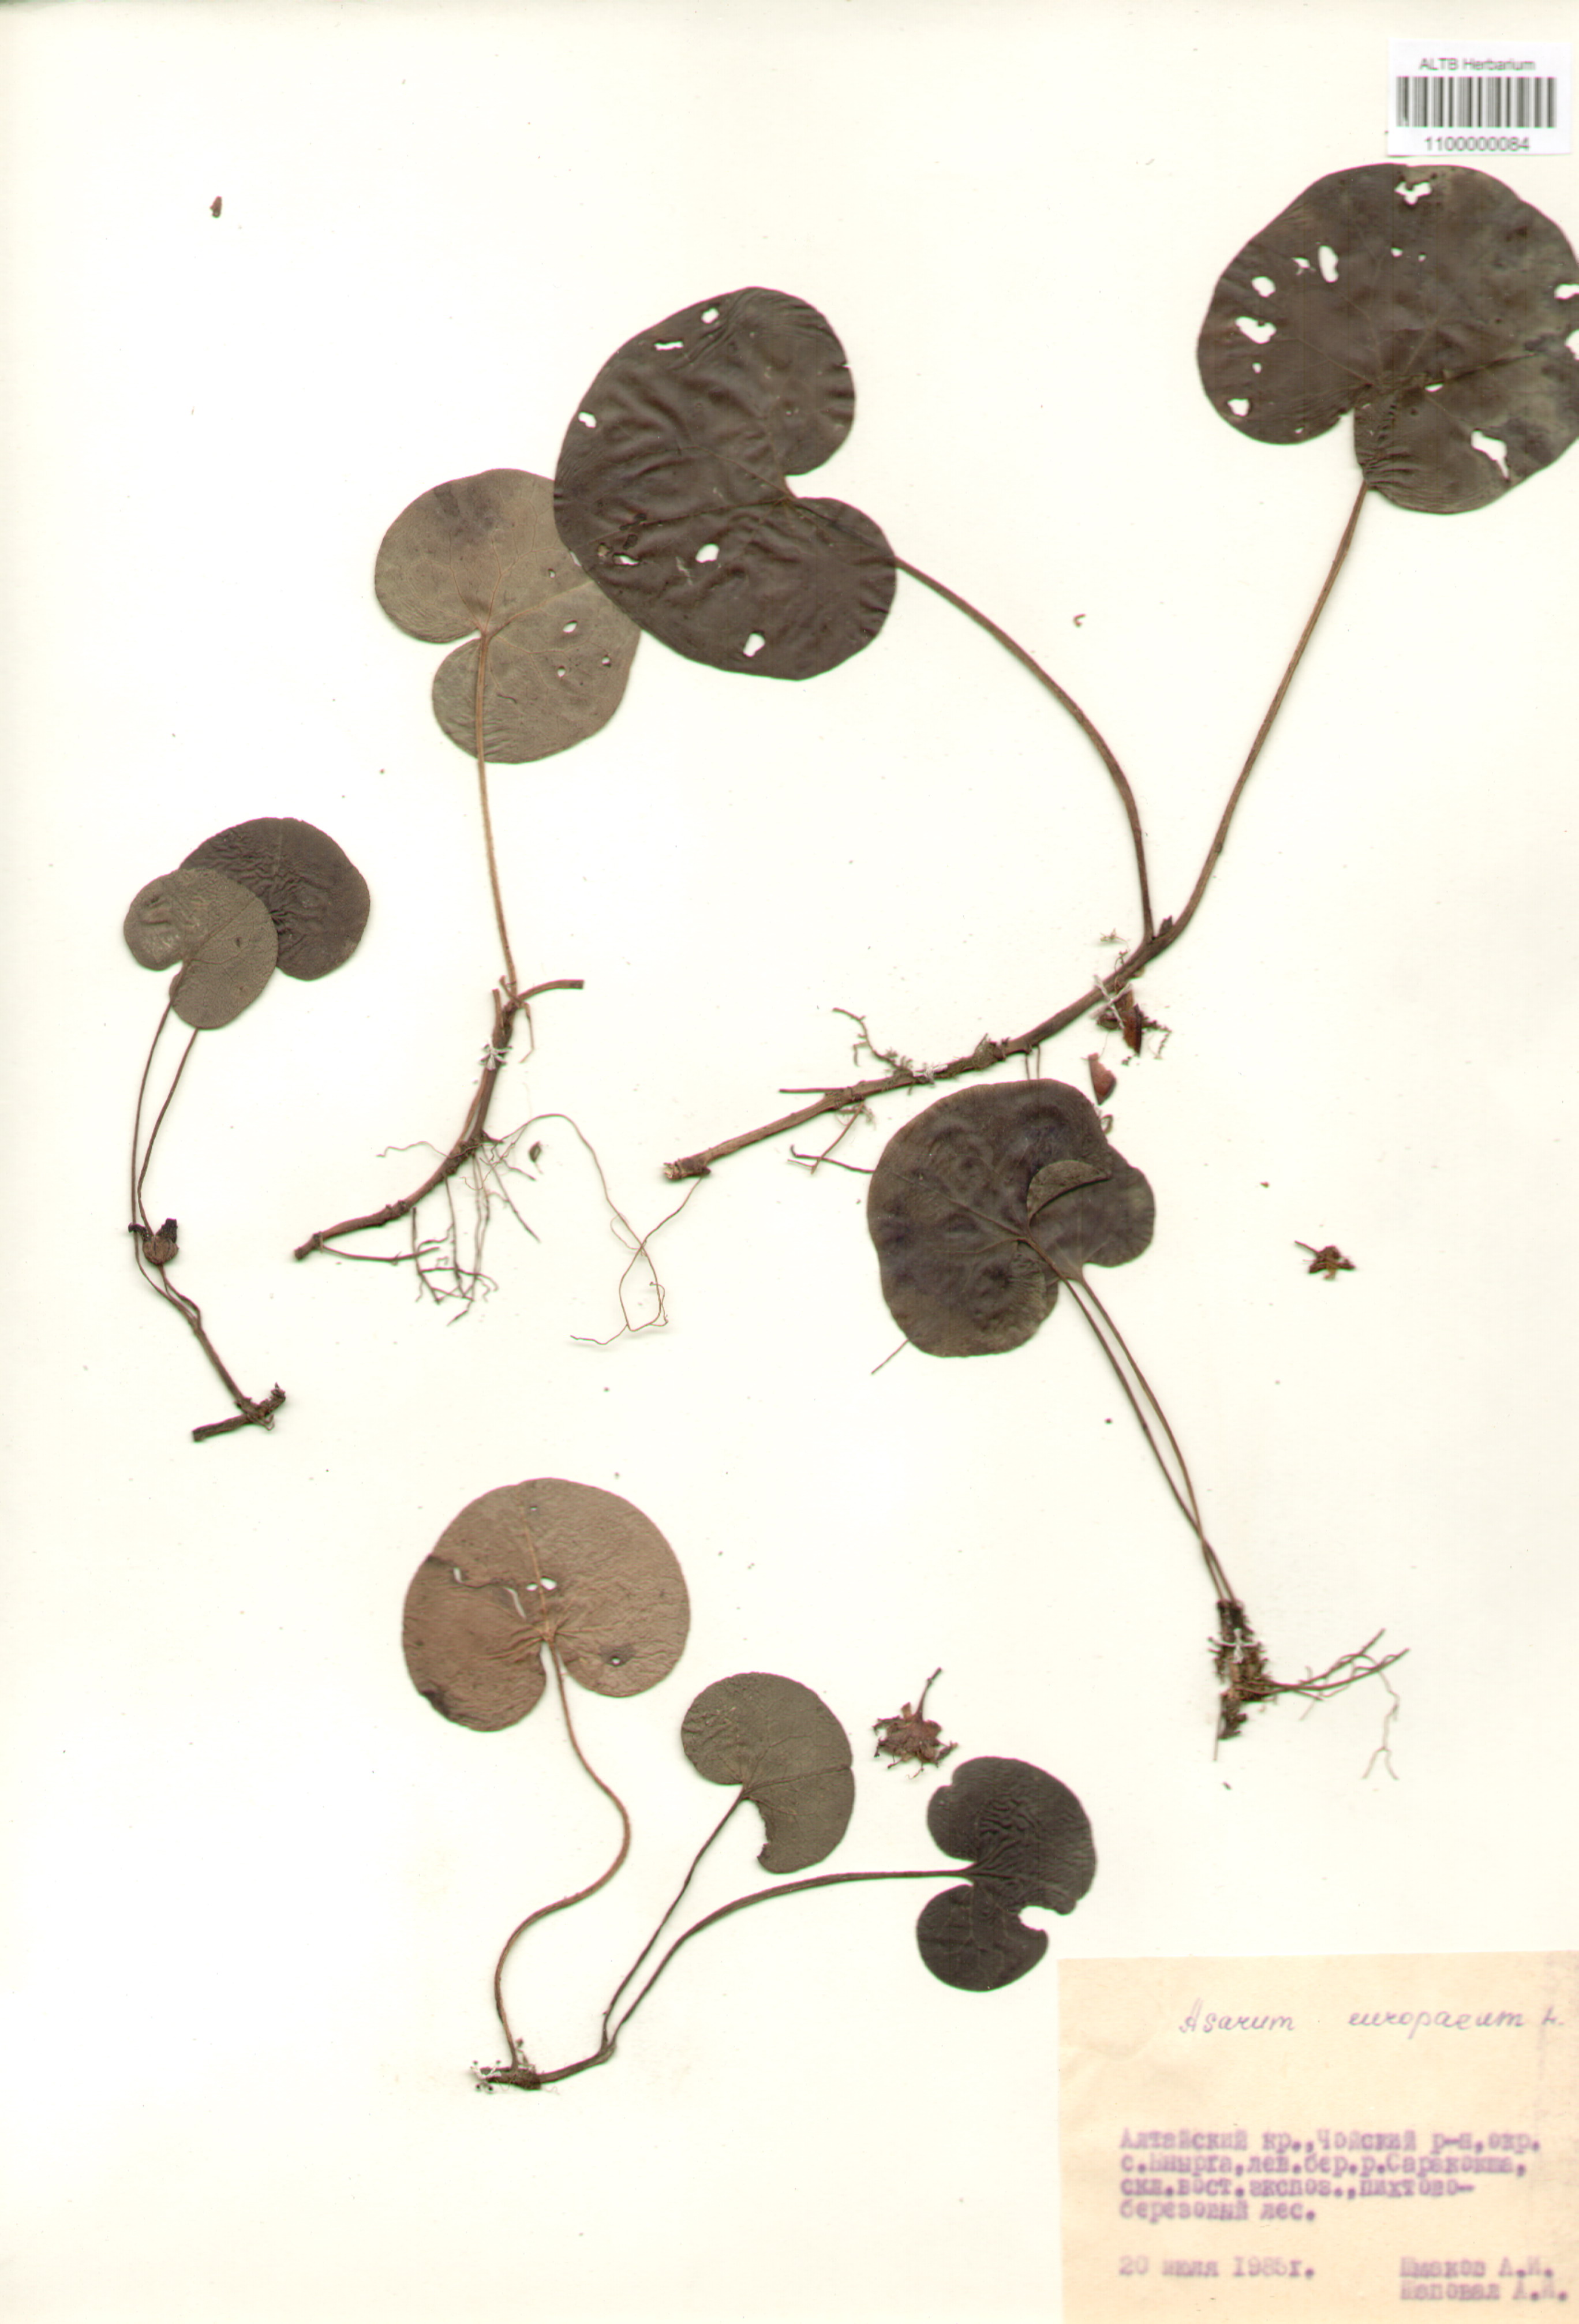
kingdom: Plantae
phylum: Tracheophyta
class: Magnoliopsida
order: Piperales
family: Aristolochiaceae
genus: Asarum
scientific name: Asarum europaeum
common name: Asarabacca
